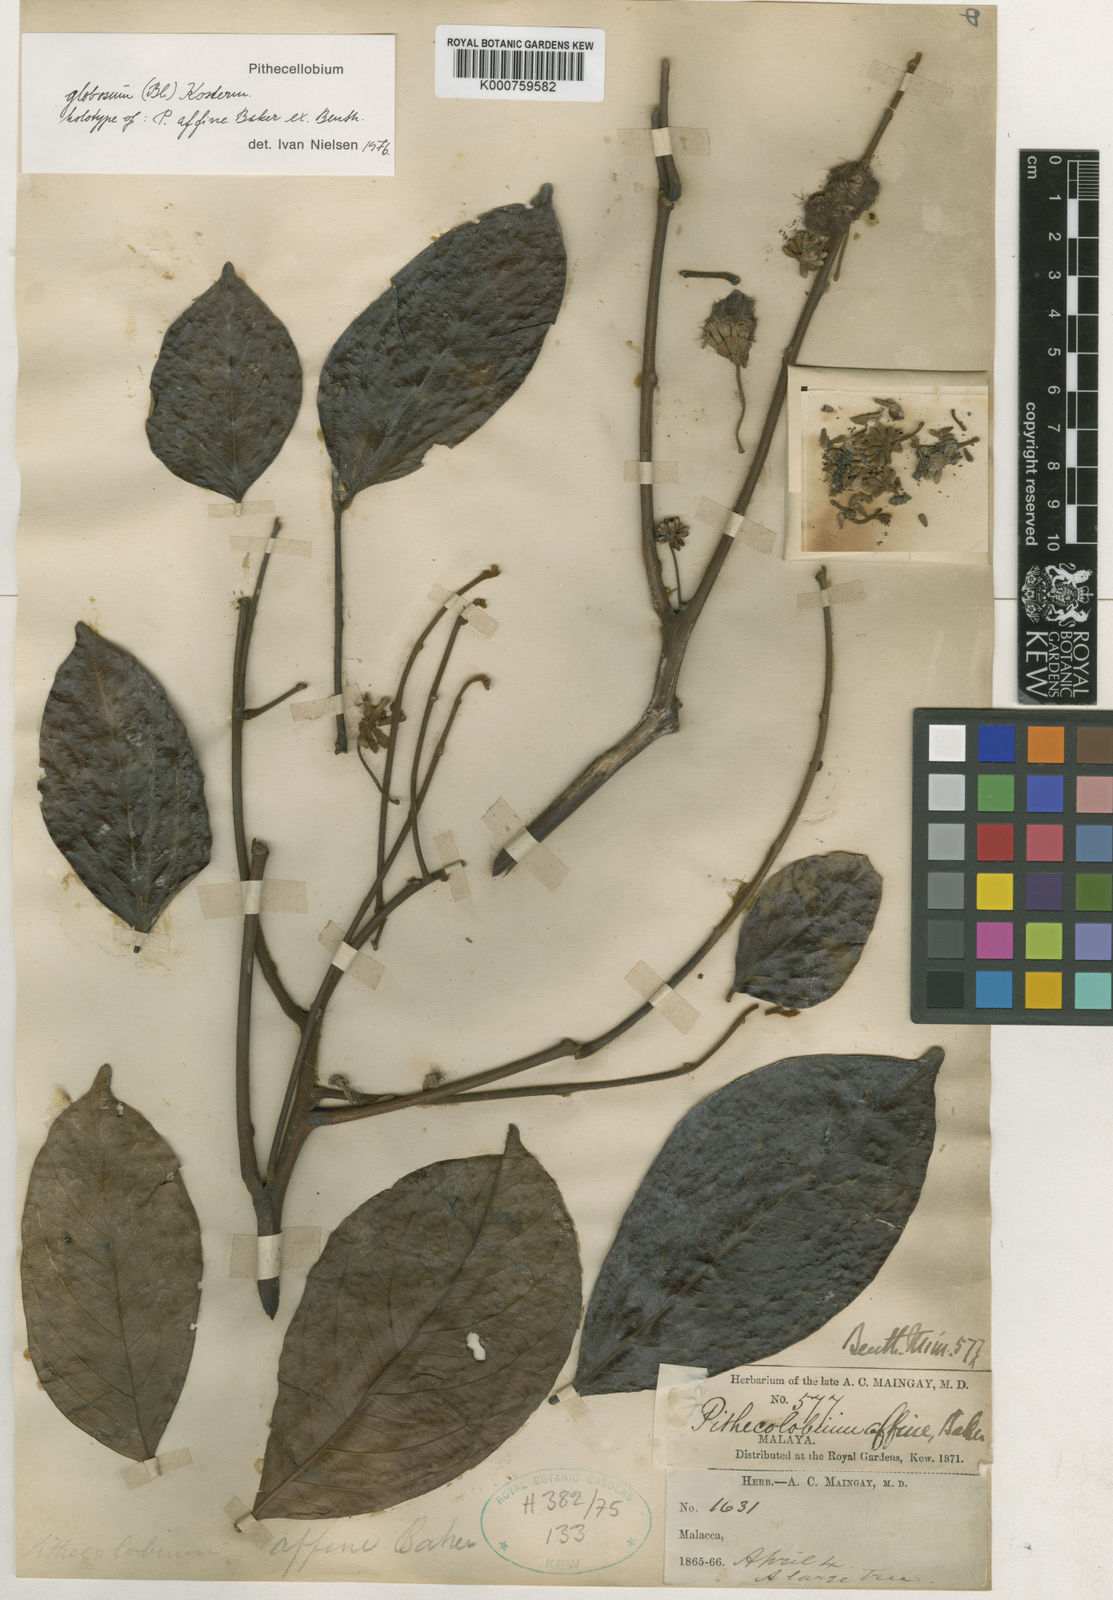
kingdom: Plantae
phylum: Tracheophyta
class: Magnoliopsida
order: Fabales
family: Fabaceae
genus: Archidendron
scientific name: Archidendron globosum
